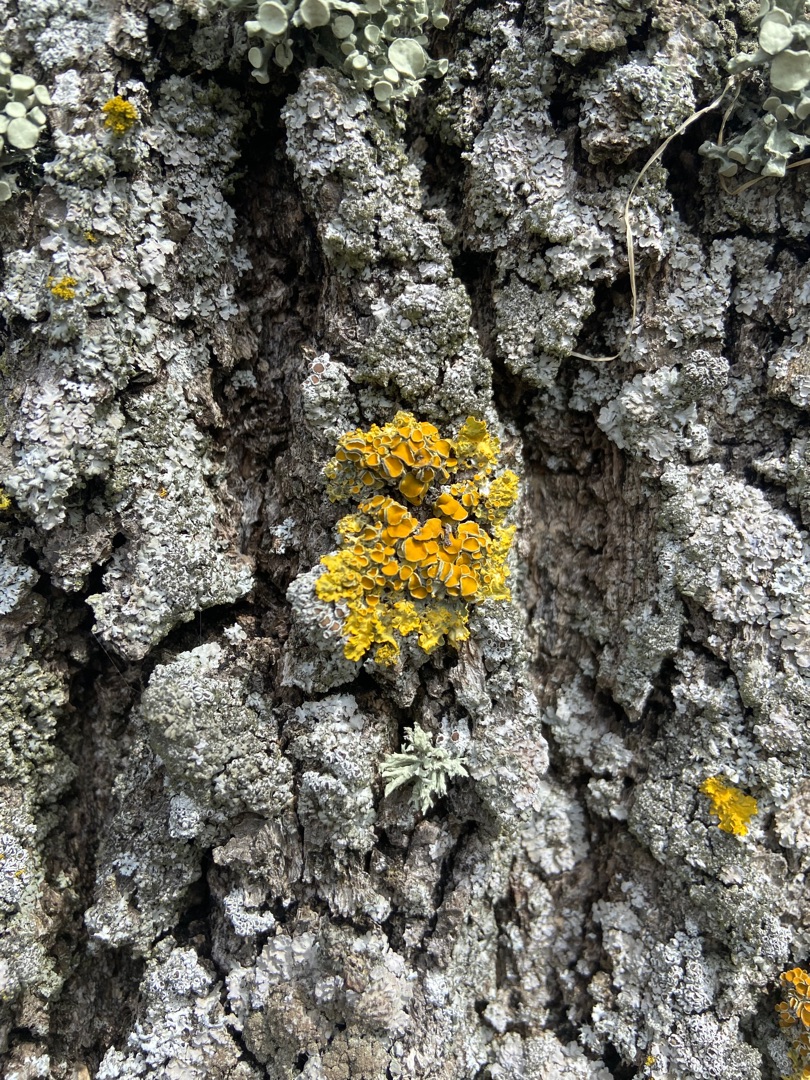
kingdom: Fungi
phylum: Ascomycota
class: Lecanoromycetes
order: Teloschistales
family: Teloschistaceae
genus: Xanthoria
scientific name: Xanthoria parietina
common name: Almindelig væggelav
